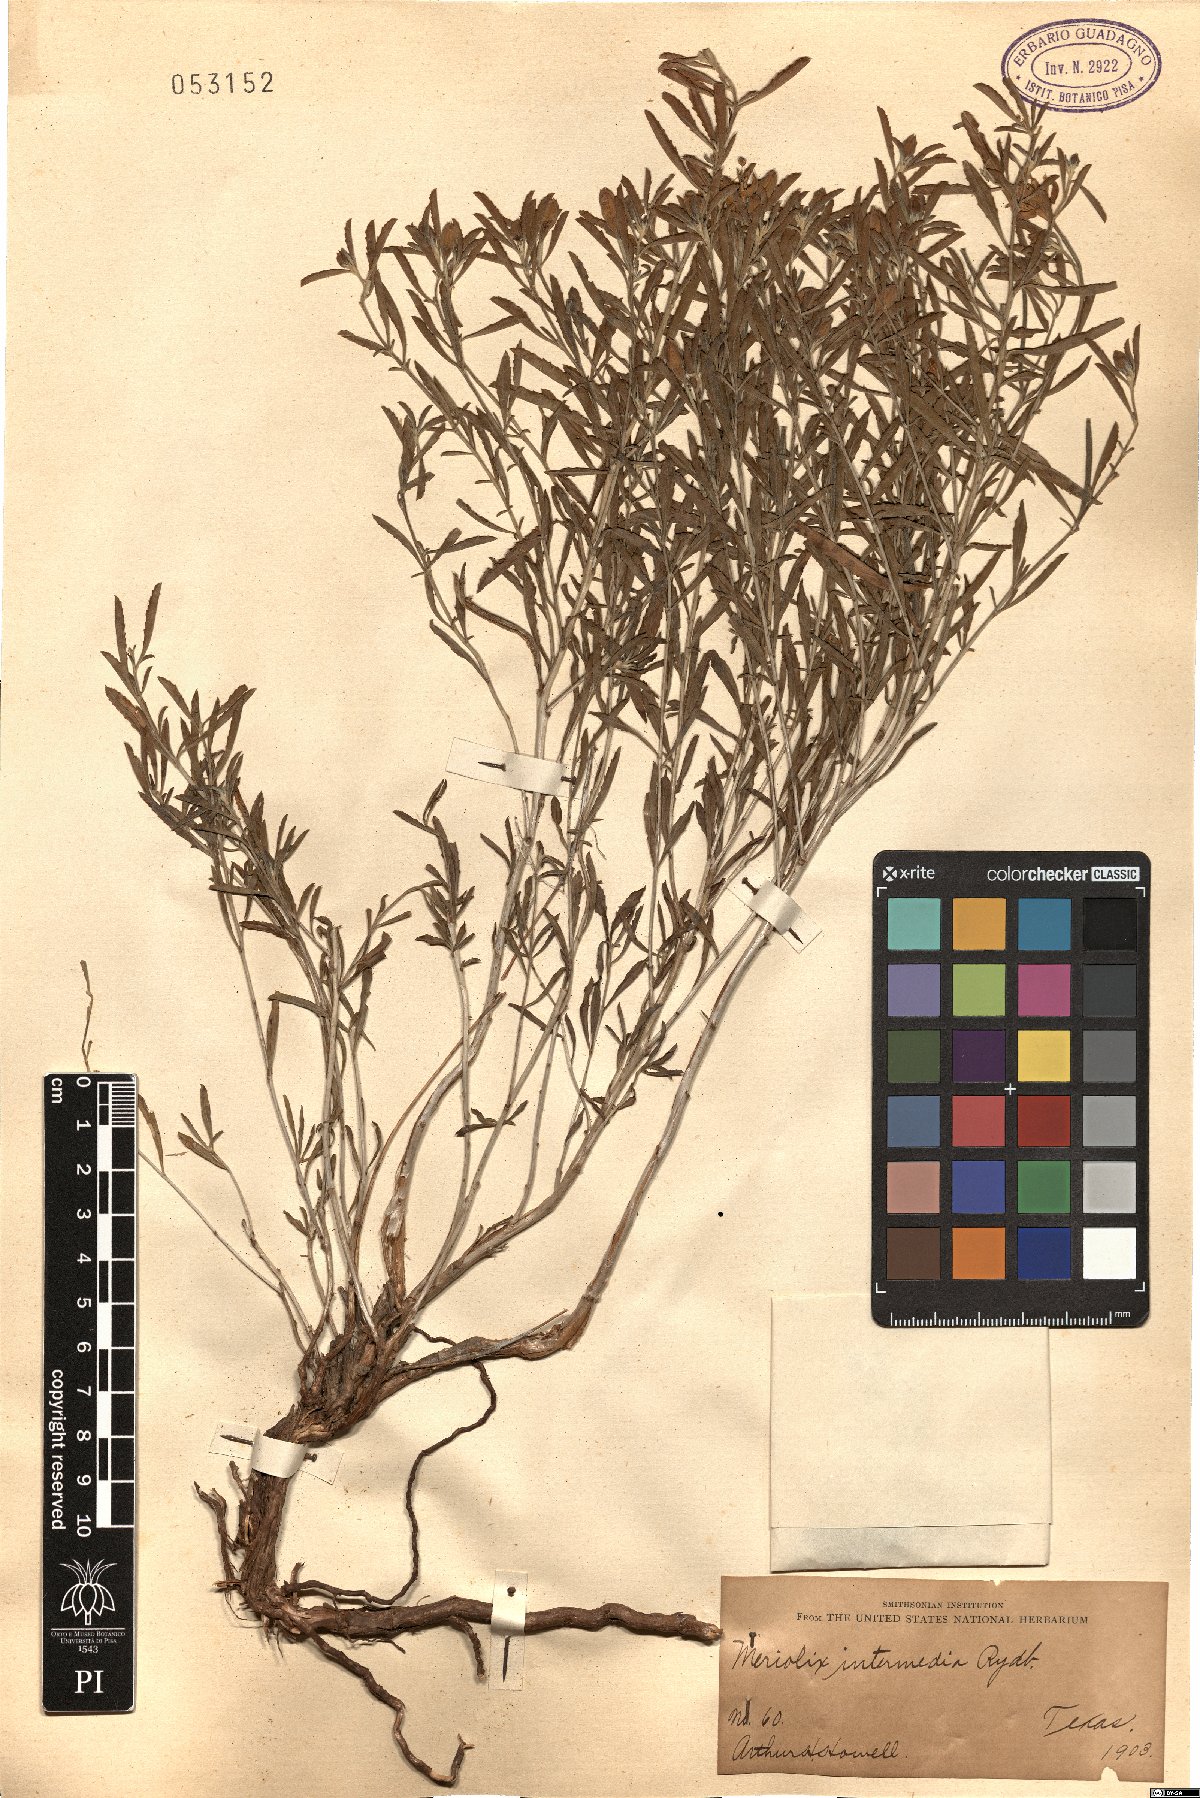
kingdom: Plantae
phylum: Tracheophyta
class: Magnoliopsida
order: Myrtales
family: Onagraceae
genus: Oenothera
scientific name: Oenothera serrulata
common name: Half-shrub calylophus
